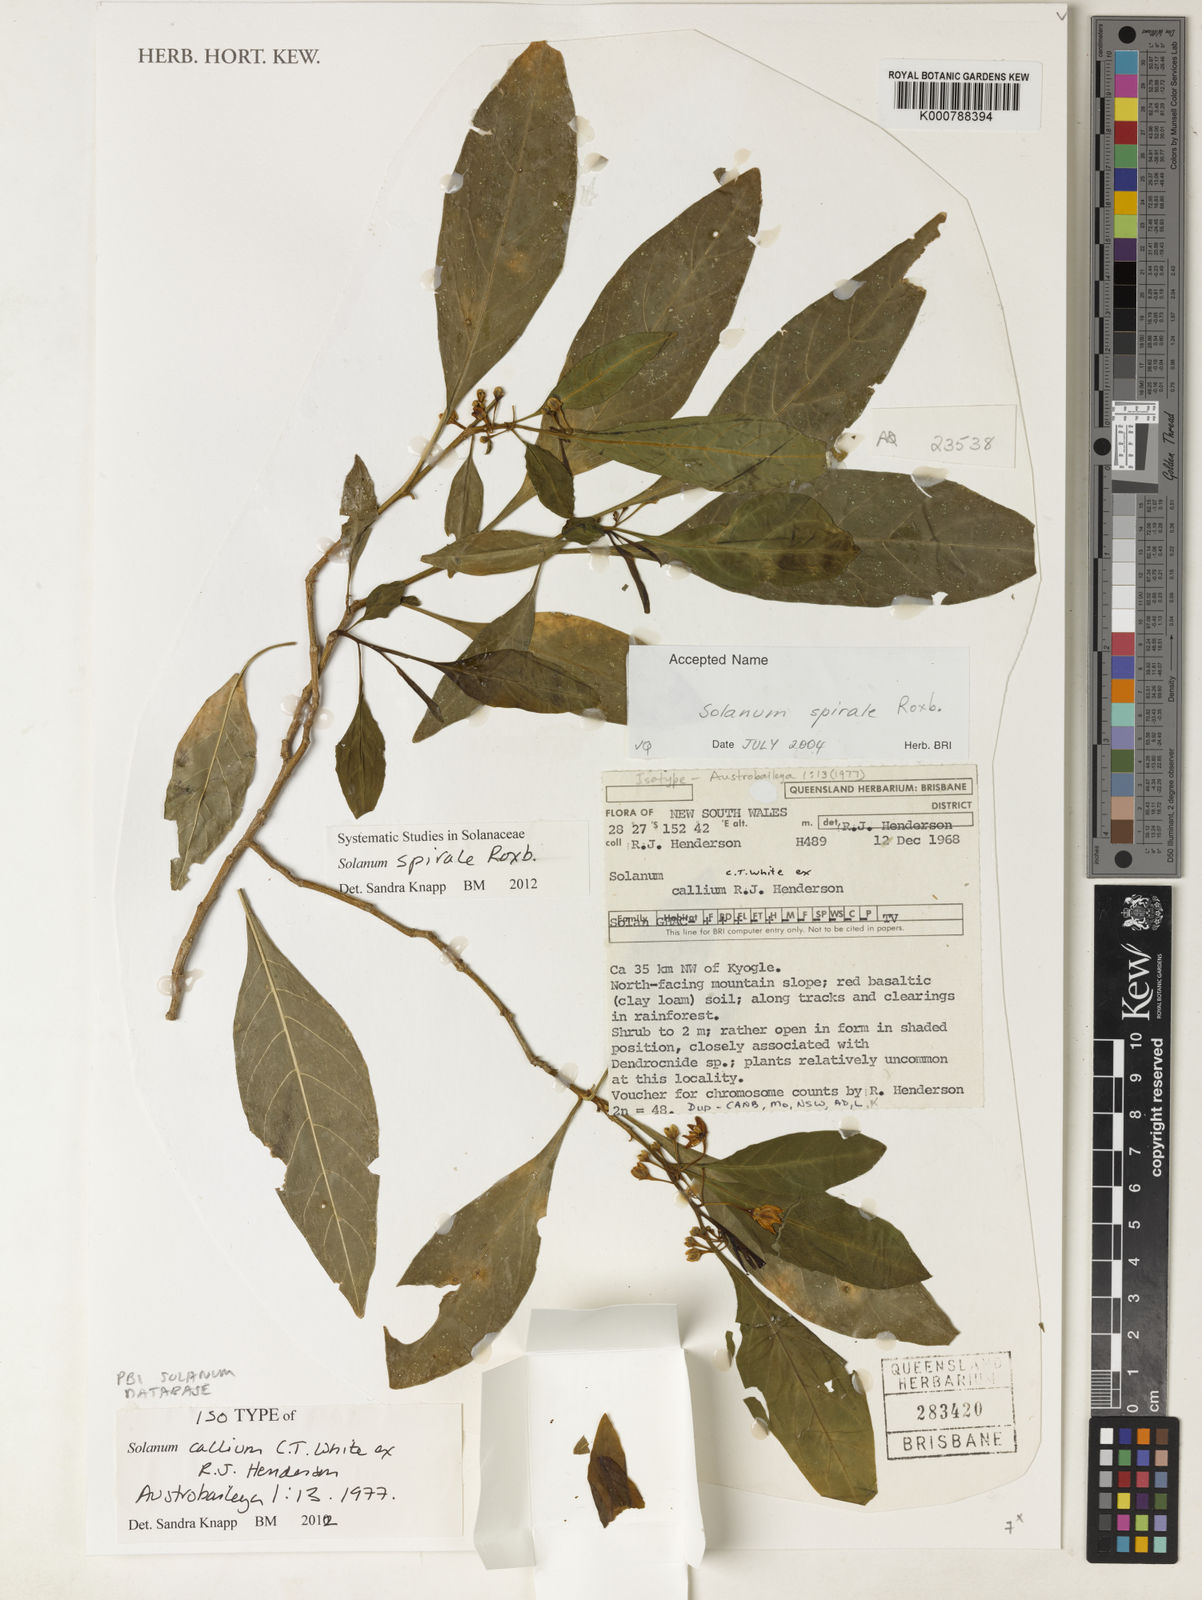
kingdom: Plantae
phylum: Tracheophyta
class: Magnoliopsida
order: Solanales
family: Solanaceae
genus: Solanum
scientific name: Solanum spirale
